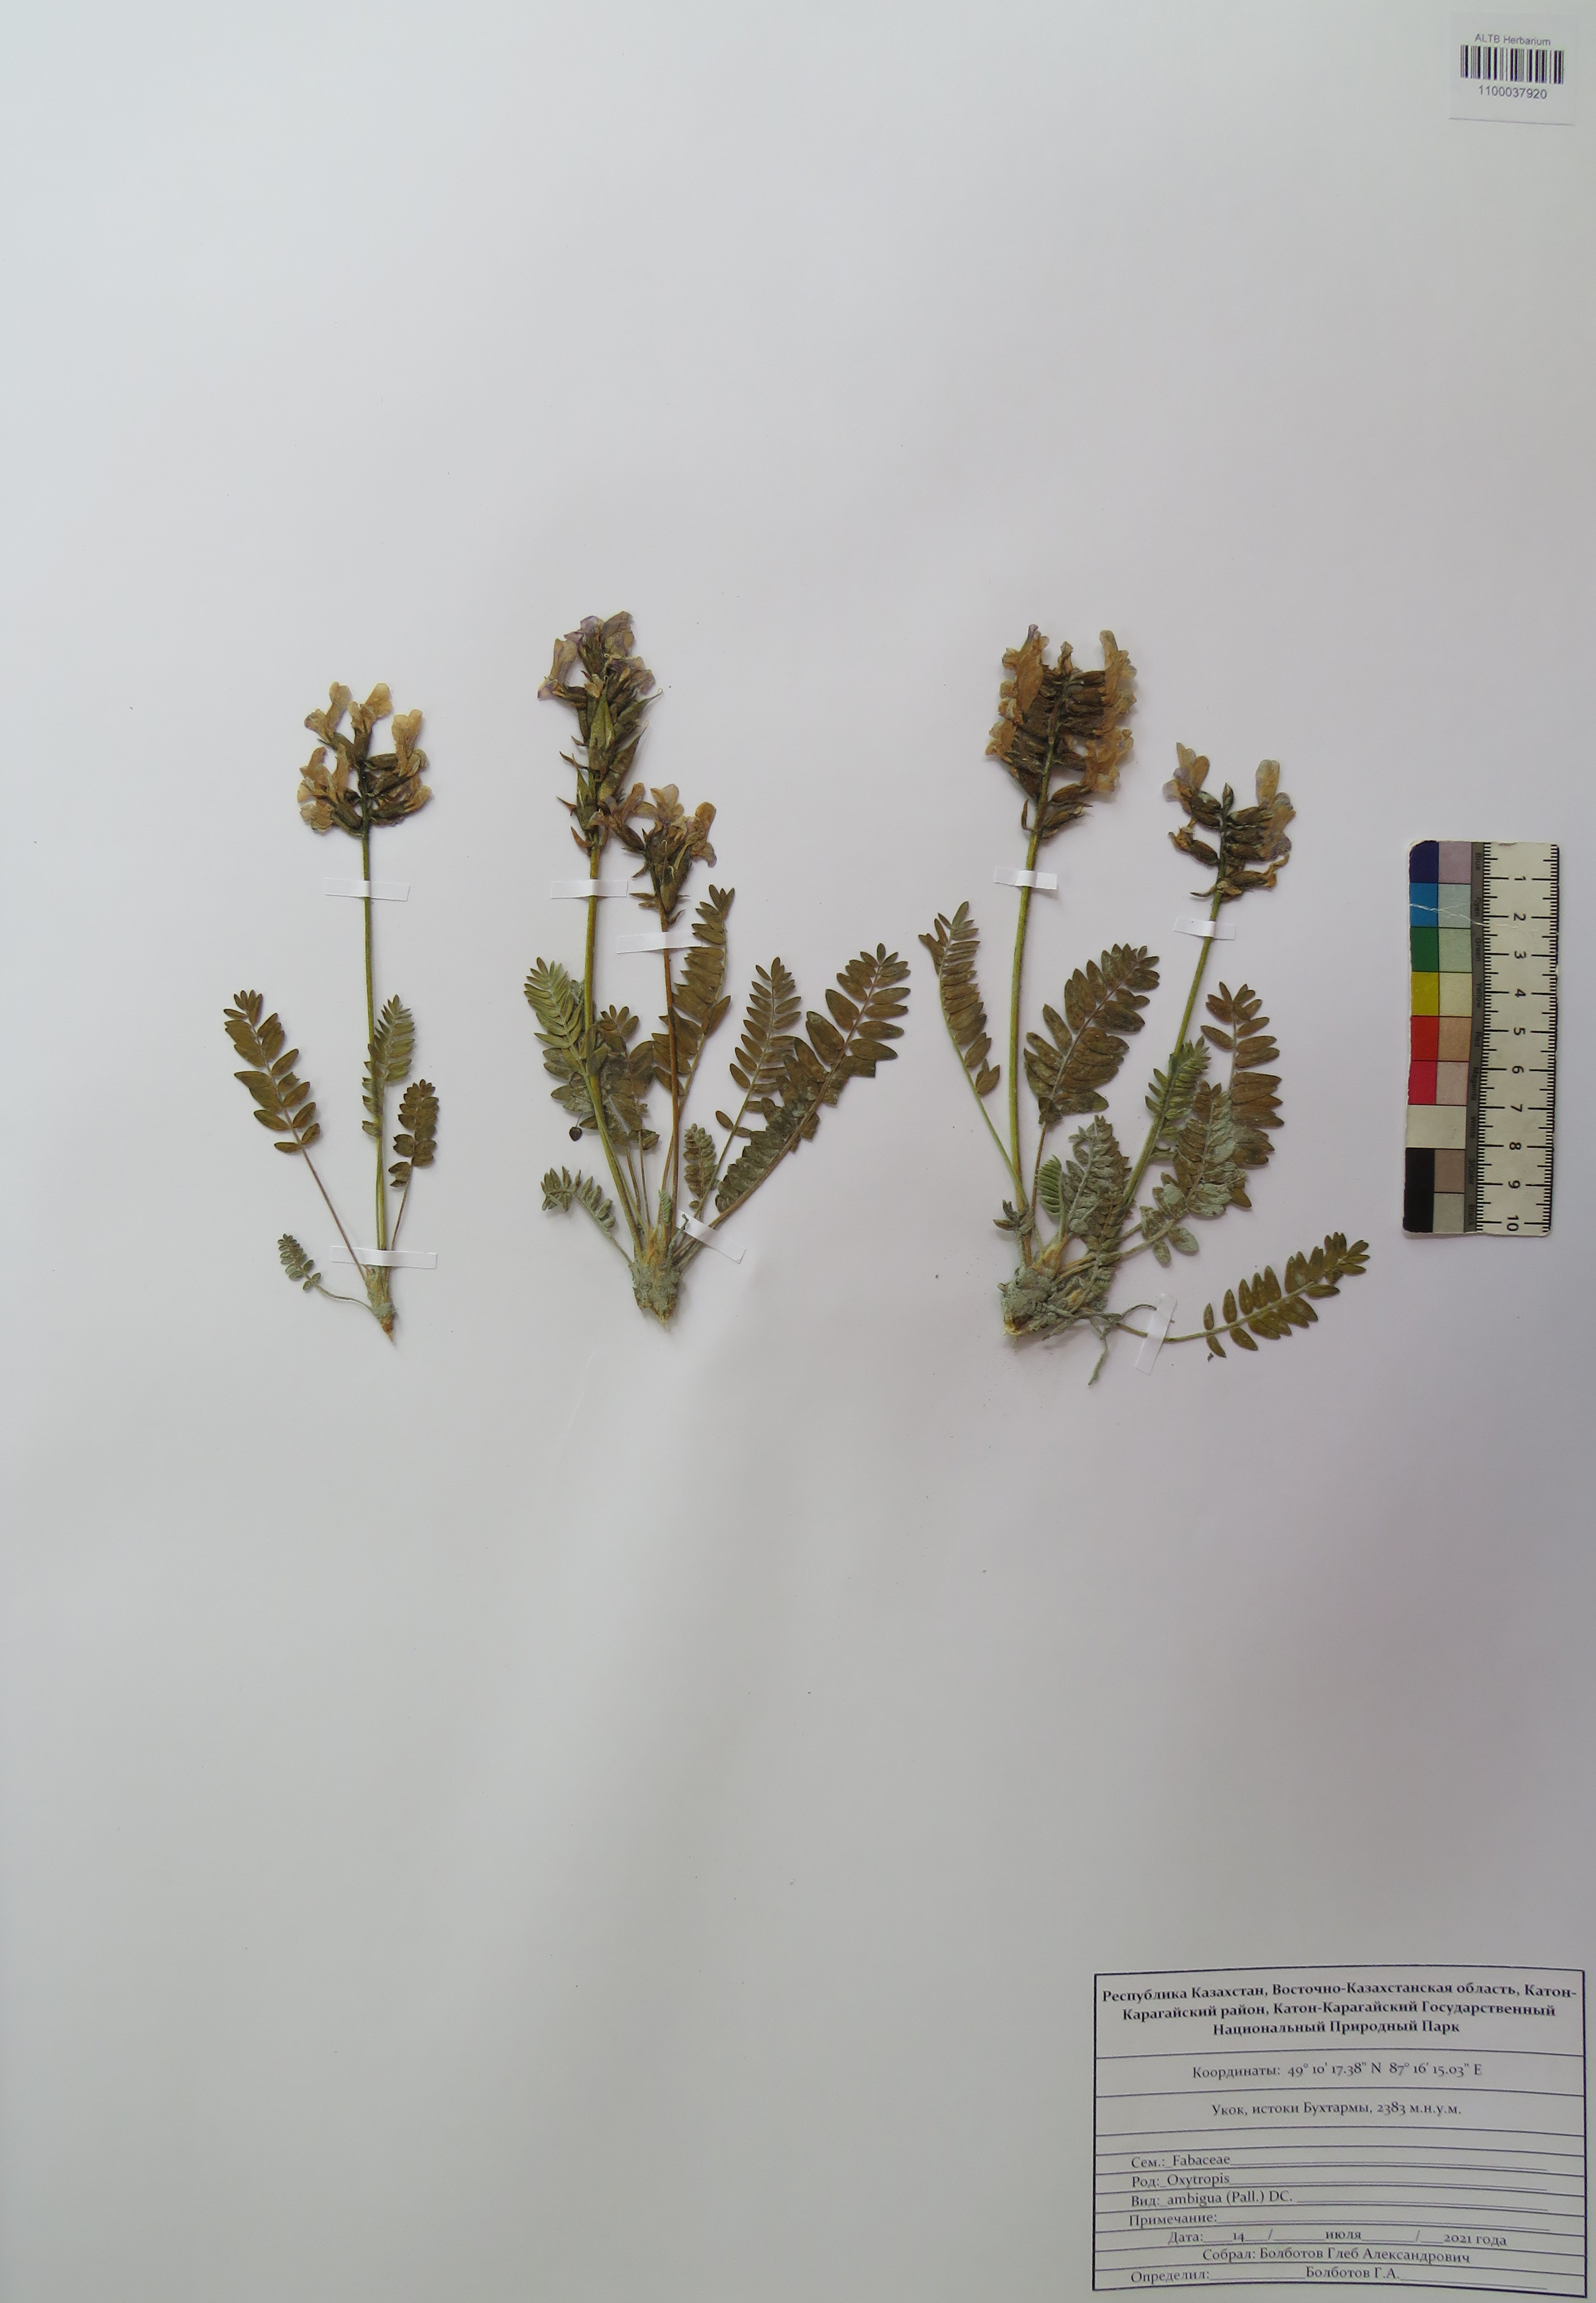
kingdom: Plantae
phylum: Tracheophyta
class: Magnoliopsida
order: Fabales
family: Fabaceae
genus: Oxytropis
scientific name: Oxytropis ambigua
